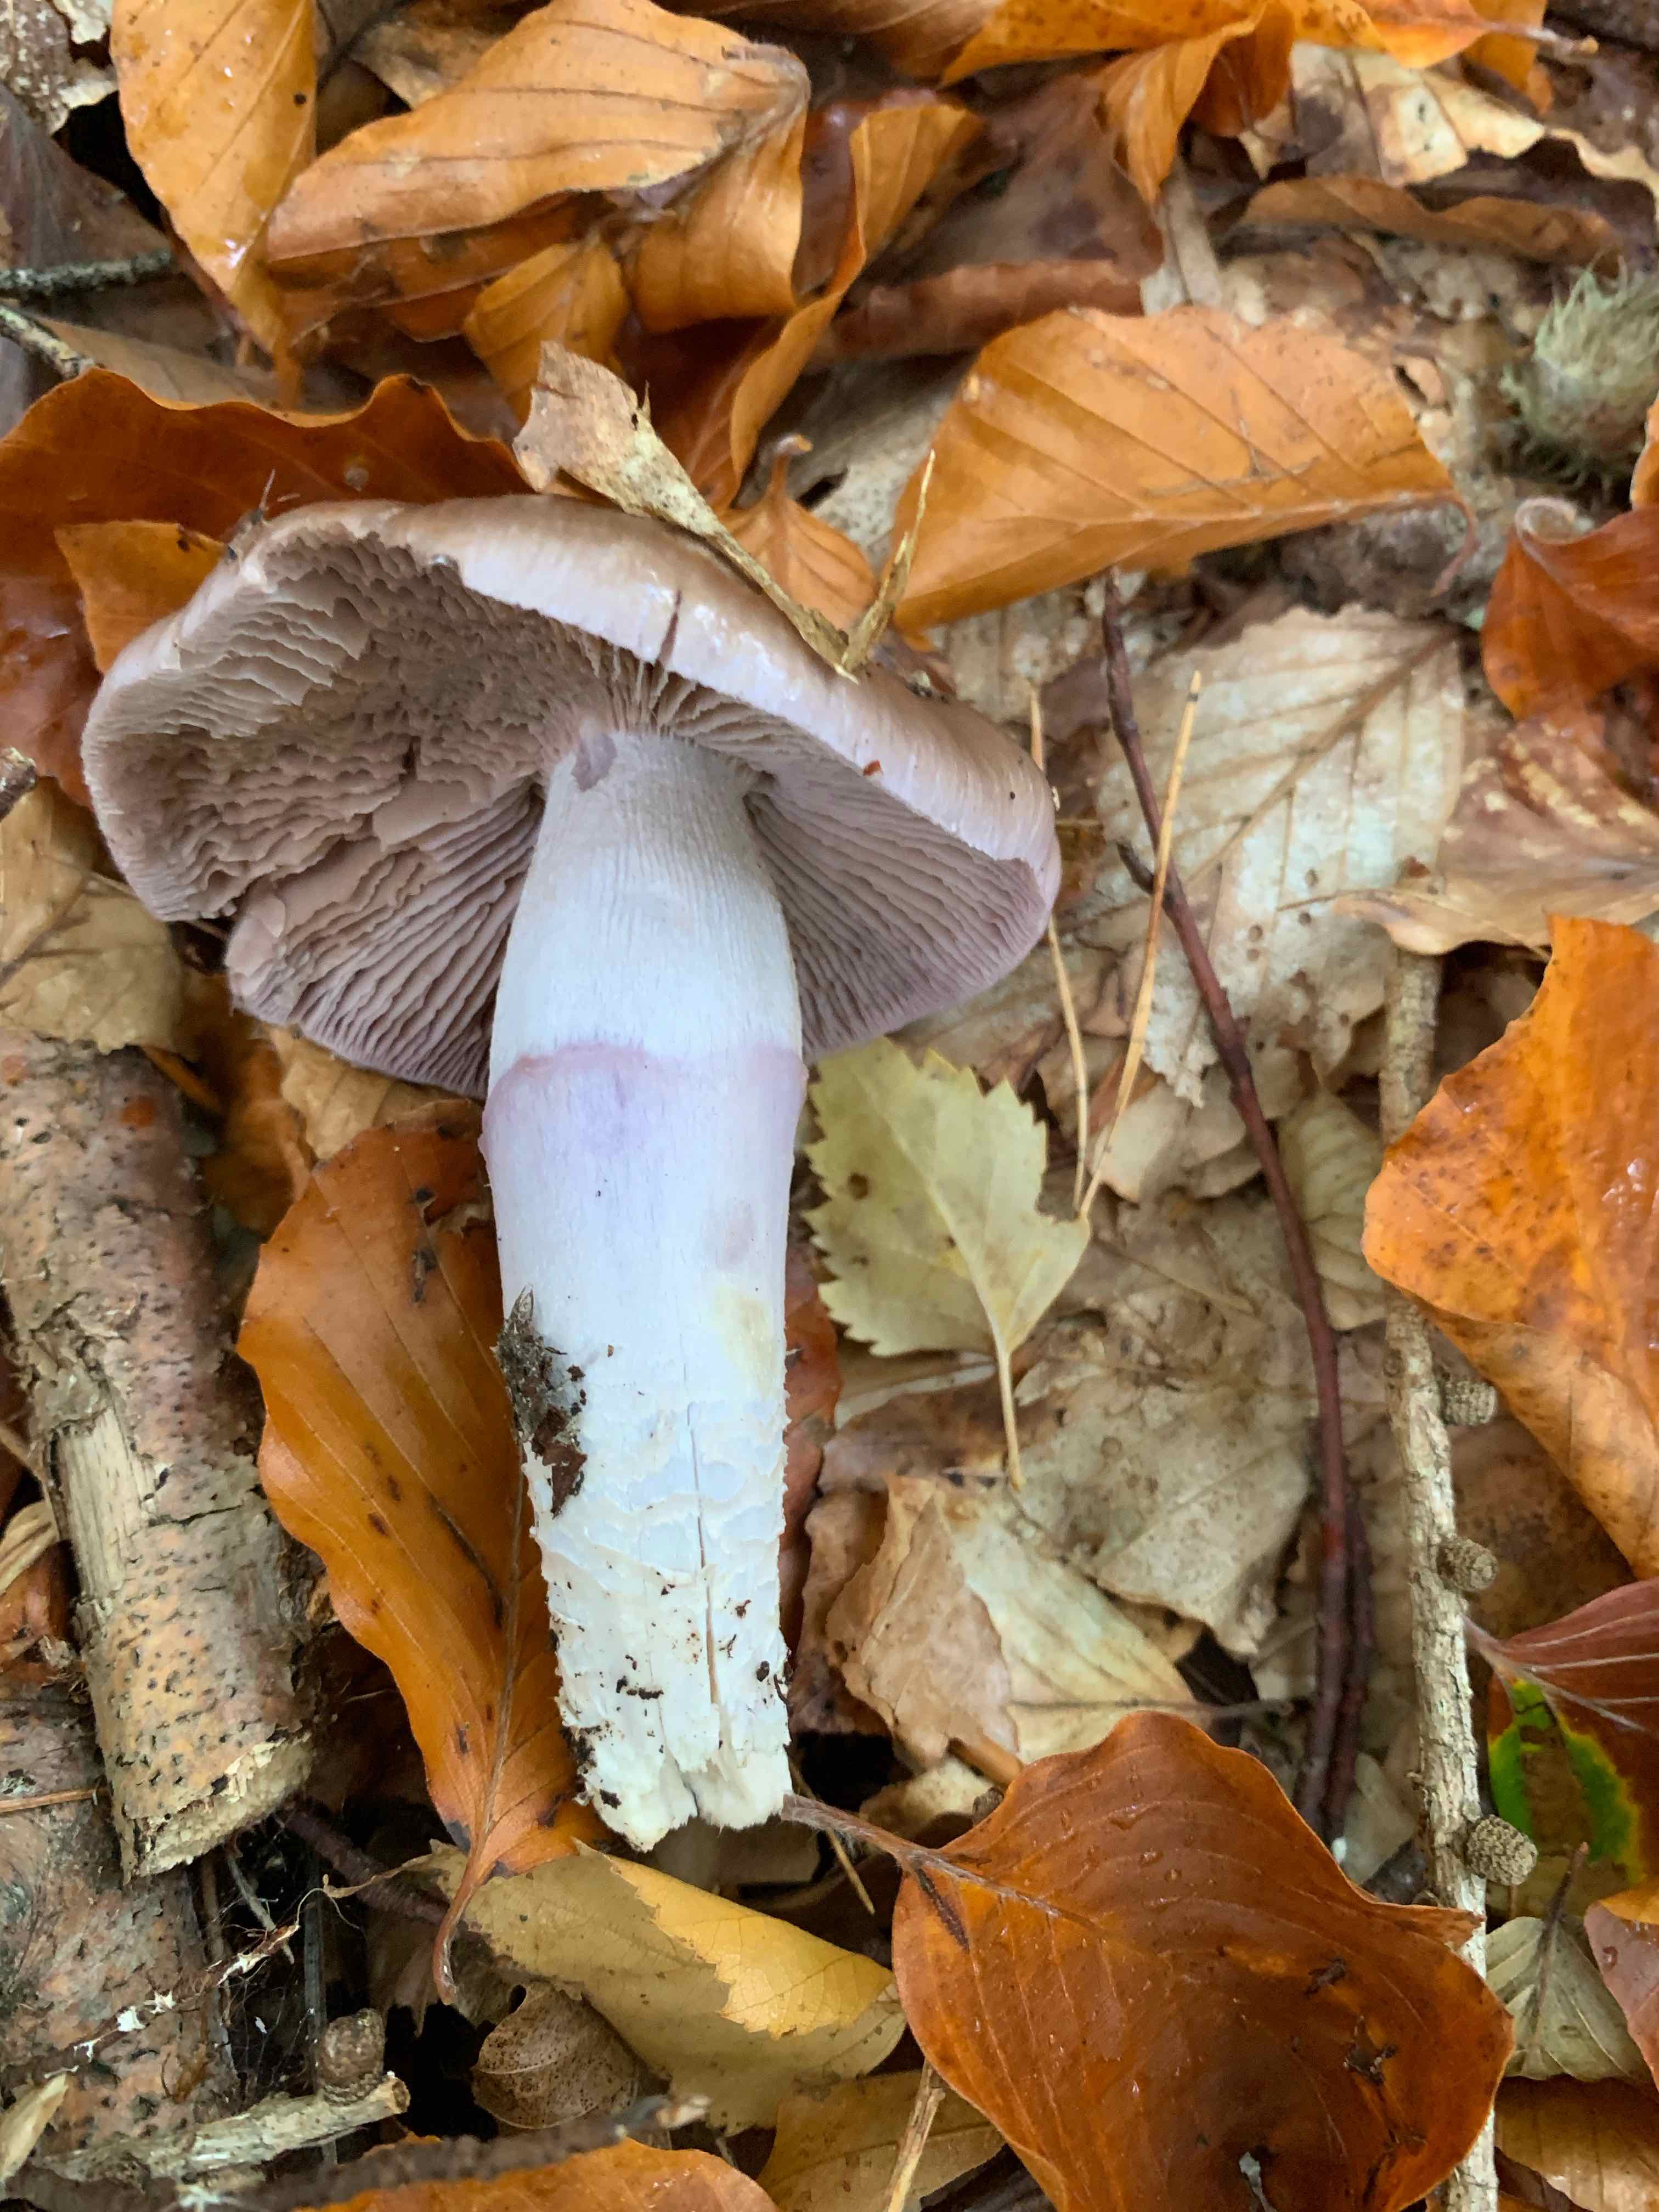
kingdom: Fungi
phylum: Basidiomycota
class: Agaricomycetes
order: Agaricales
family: Cortinariaceae
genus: Cortinarius
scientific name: Cortinarius elatior
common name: høj slørhat
